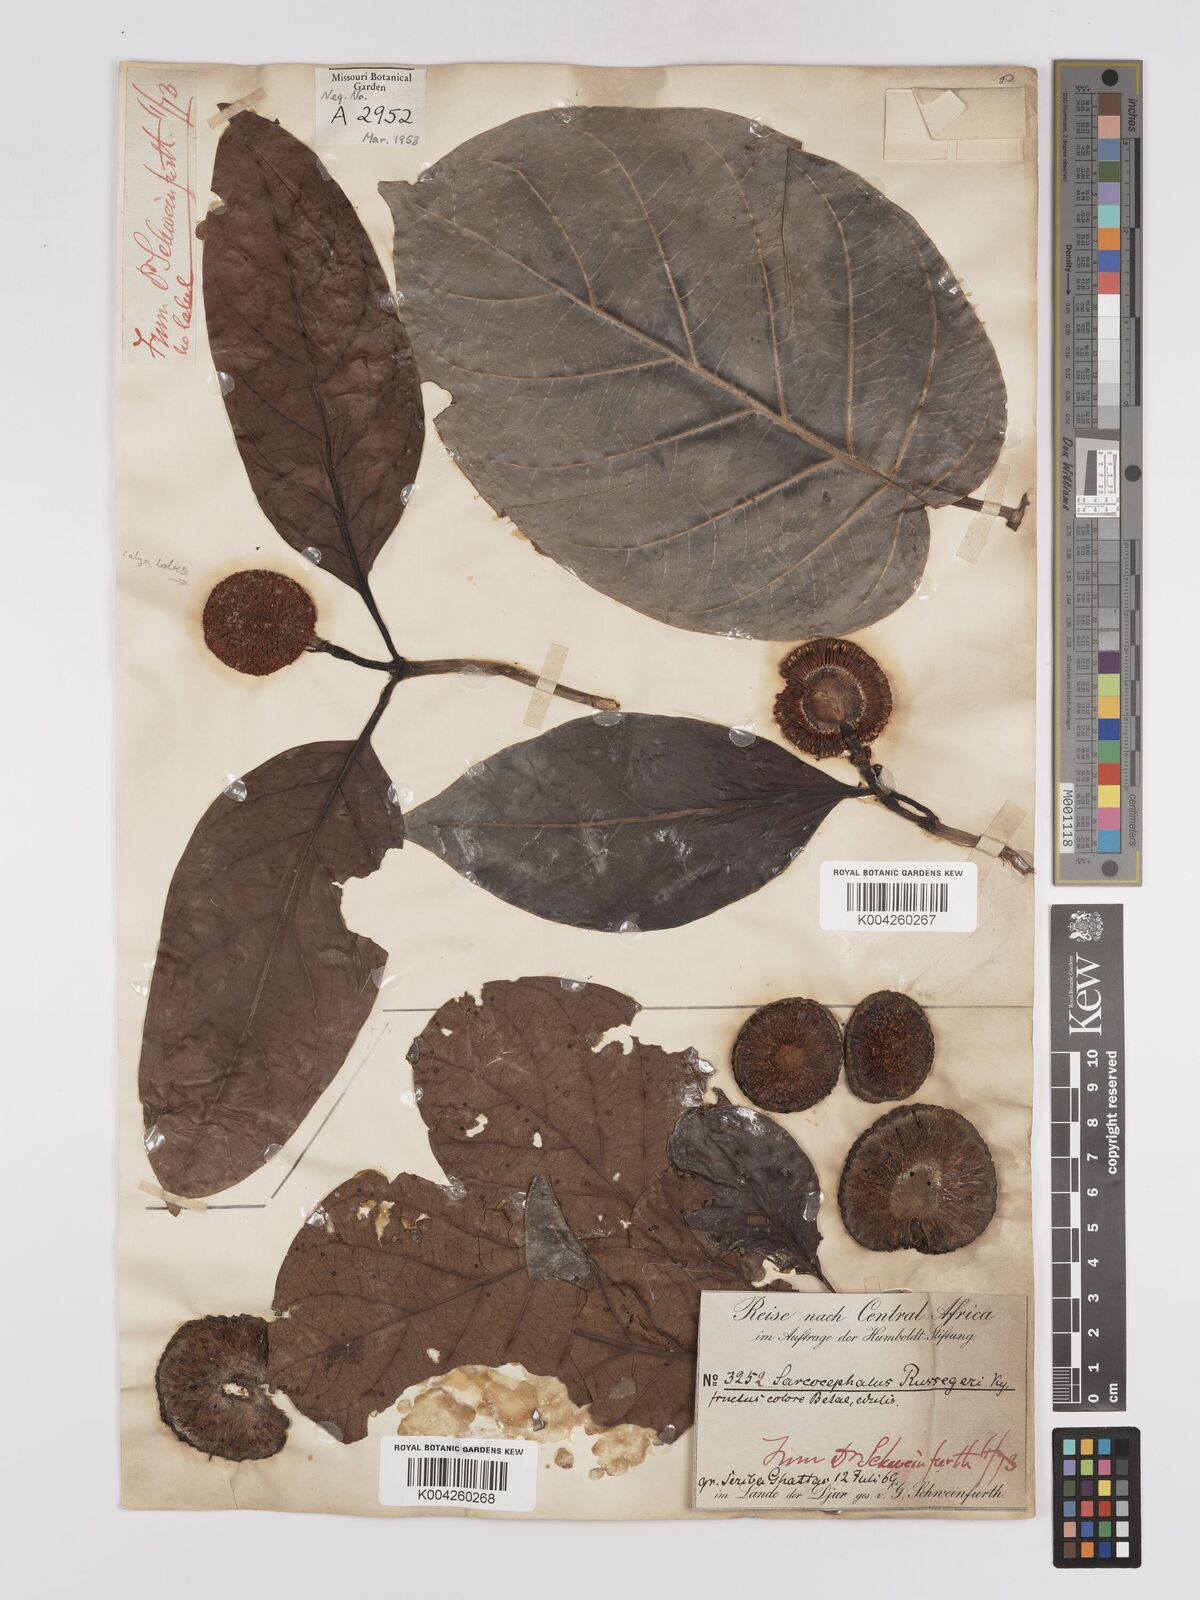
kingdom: Plantae
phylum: Tracheophyta
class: Magnoliopsida
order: Gentianales
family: Rubiaceae
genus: Nauclea
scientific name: Nauclea
